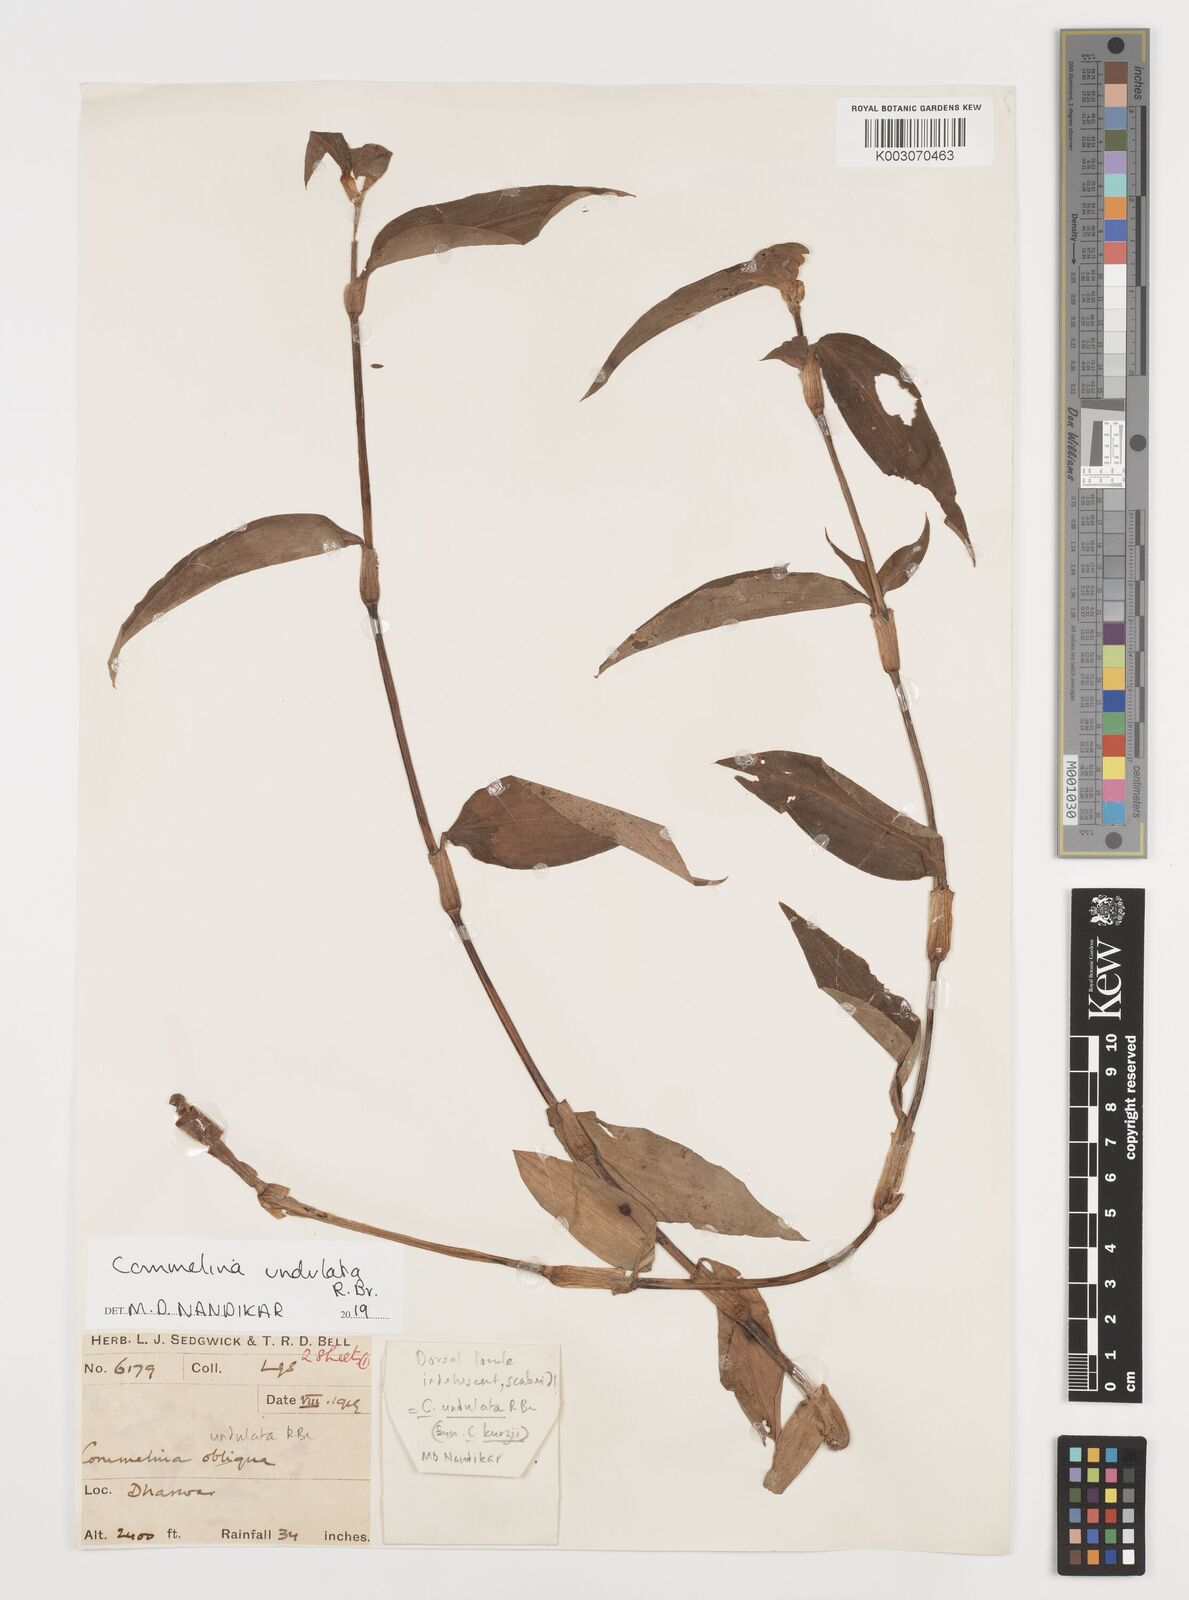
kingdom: Plantae
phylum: Tracheophyta
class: Liliopsida
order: Commelinales
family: Commelinaceae
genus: Commelina
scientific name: Commelina undulata
